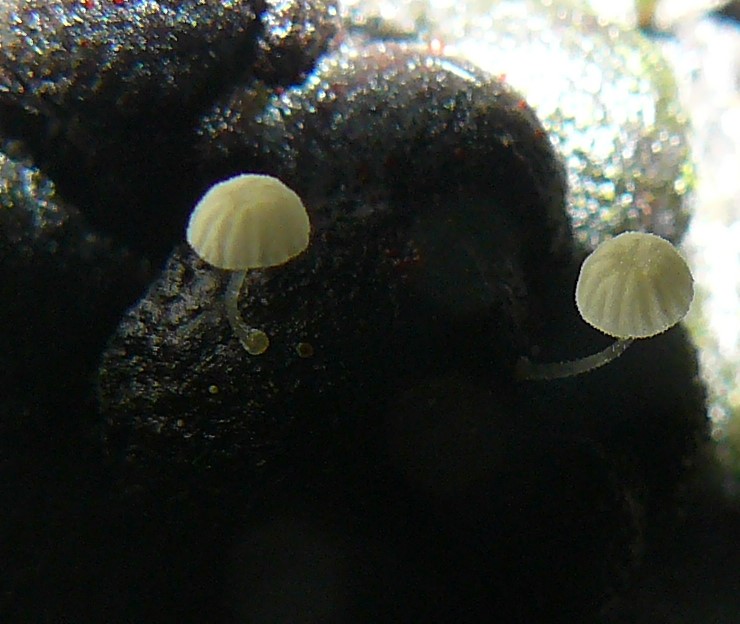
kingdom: Fungi
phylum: Basidiomycota
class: Agaricomycetes
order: Agaricales
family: Mycenaceae
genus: Mycena
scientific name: Mycena tenerrima
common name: pudret huesvamp
